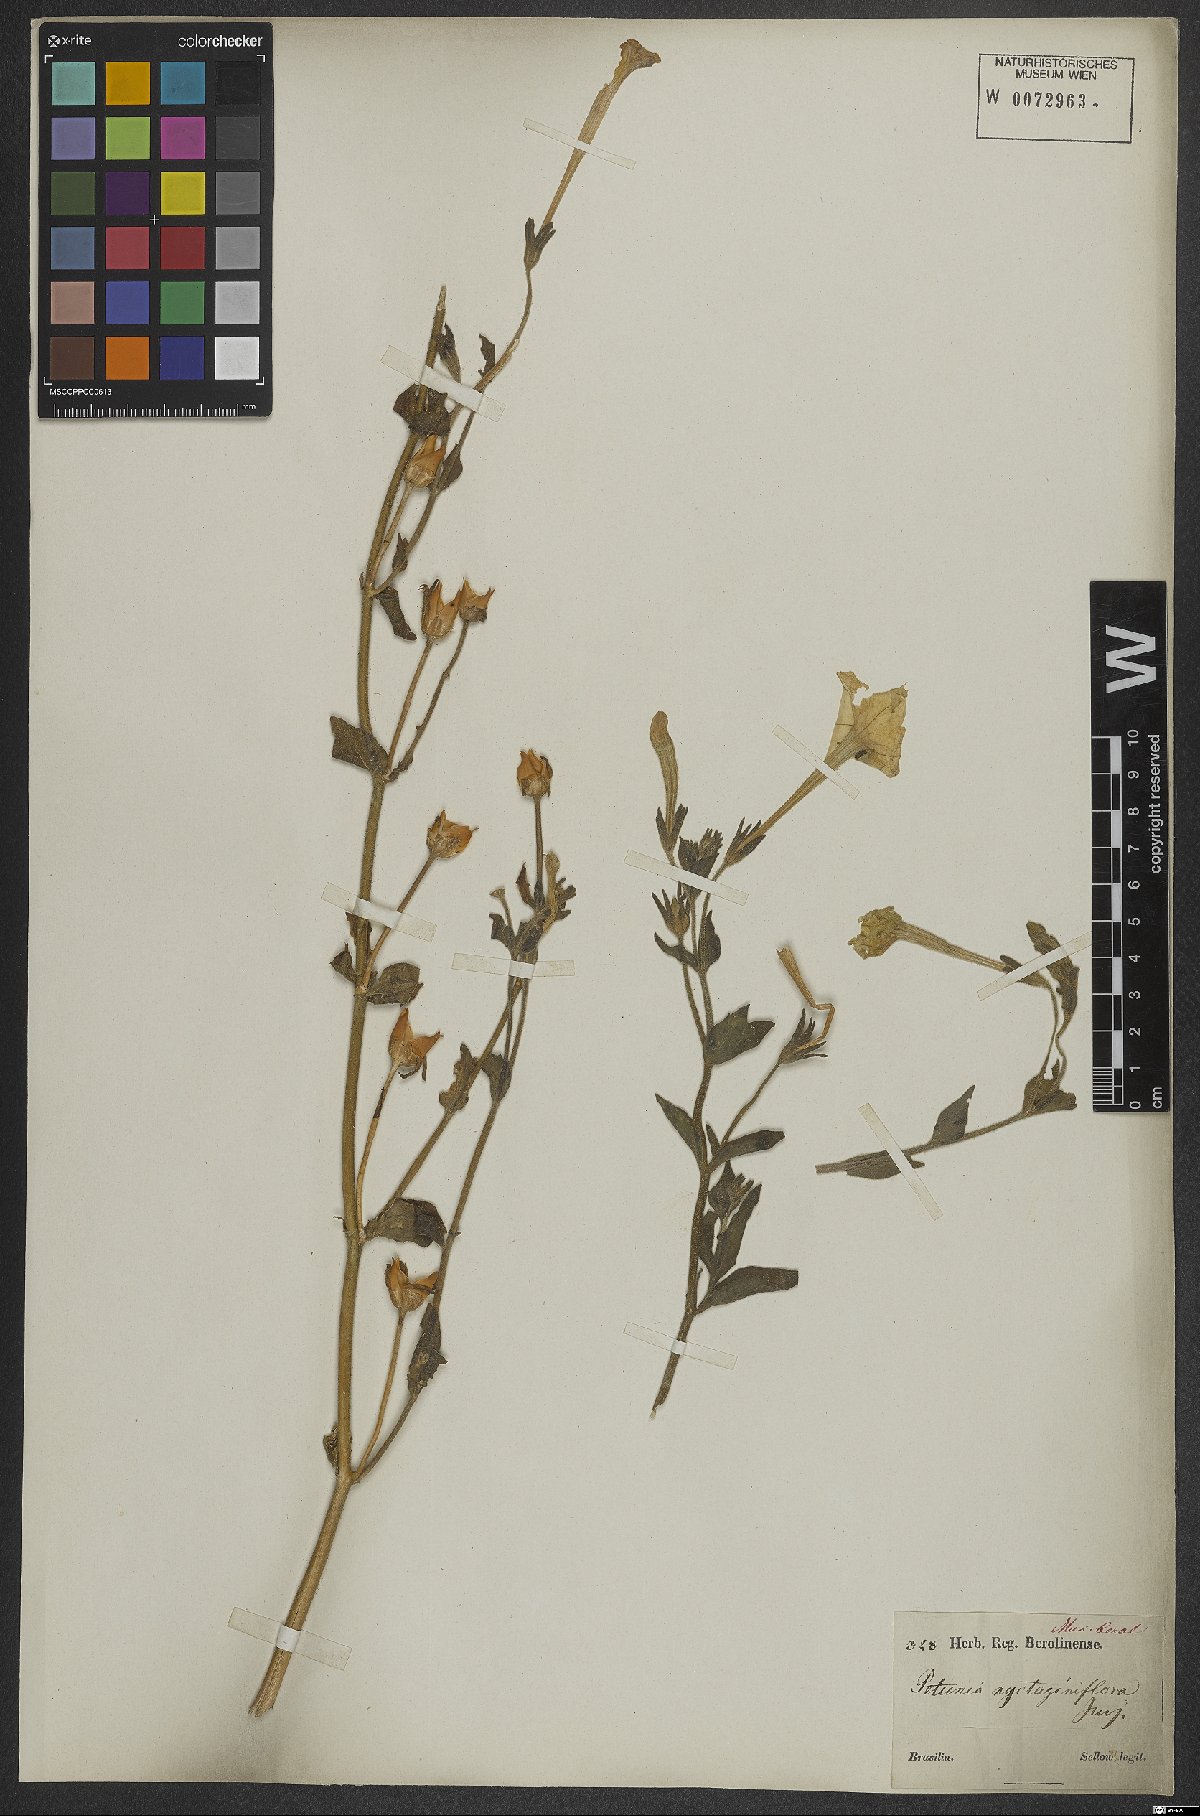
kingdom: Plantae
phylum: Tracheophyta
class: Magnoliopsida
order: Solanales
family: Solanaceae
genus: Petunia
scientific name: Petunia axillaris
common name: Large white petunia
